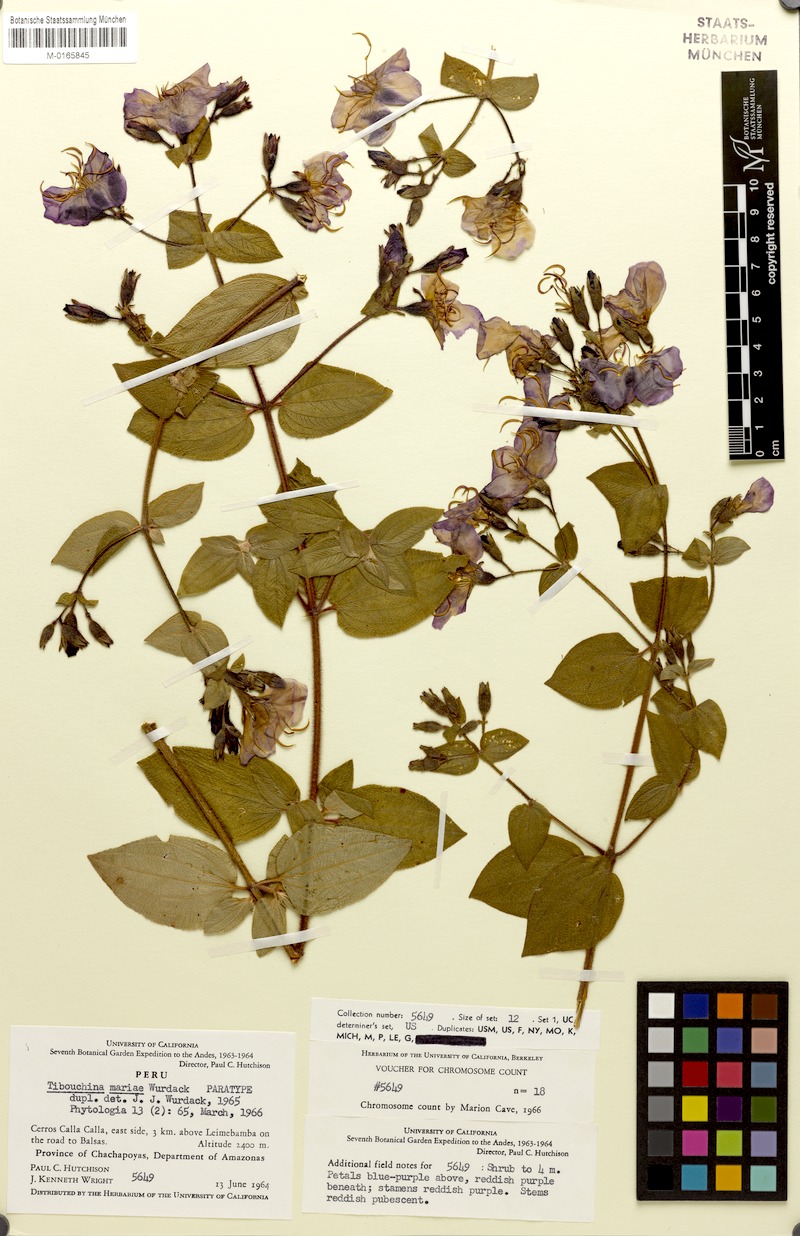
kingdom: Plantae
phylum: Tracheophyta
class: Magnoliopsida
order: Myrtales
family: Melastomataceae
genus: Chaetogastra
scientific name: Chaetogastra mariae
